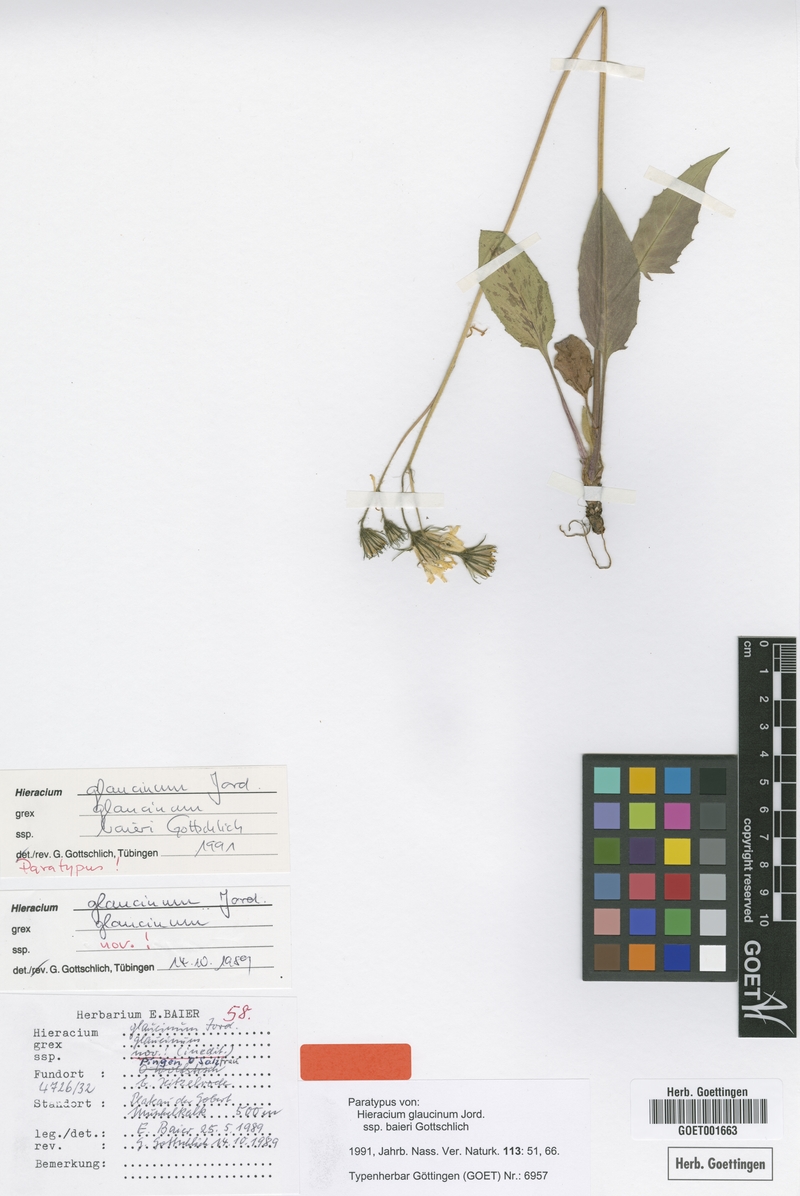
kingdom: Plantae
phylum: Tracheophyta
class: Magnoliopsida
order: Asterales
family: Asteraceae
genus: Hieracium
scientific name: Hieracium glaucinum
